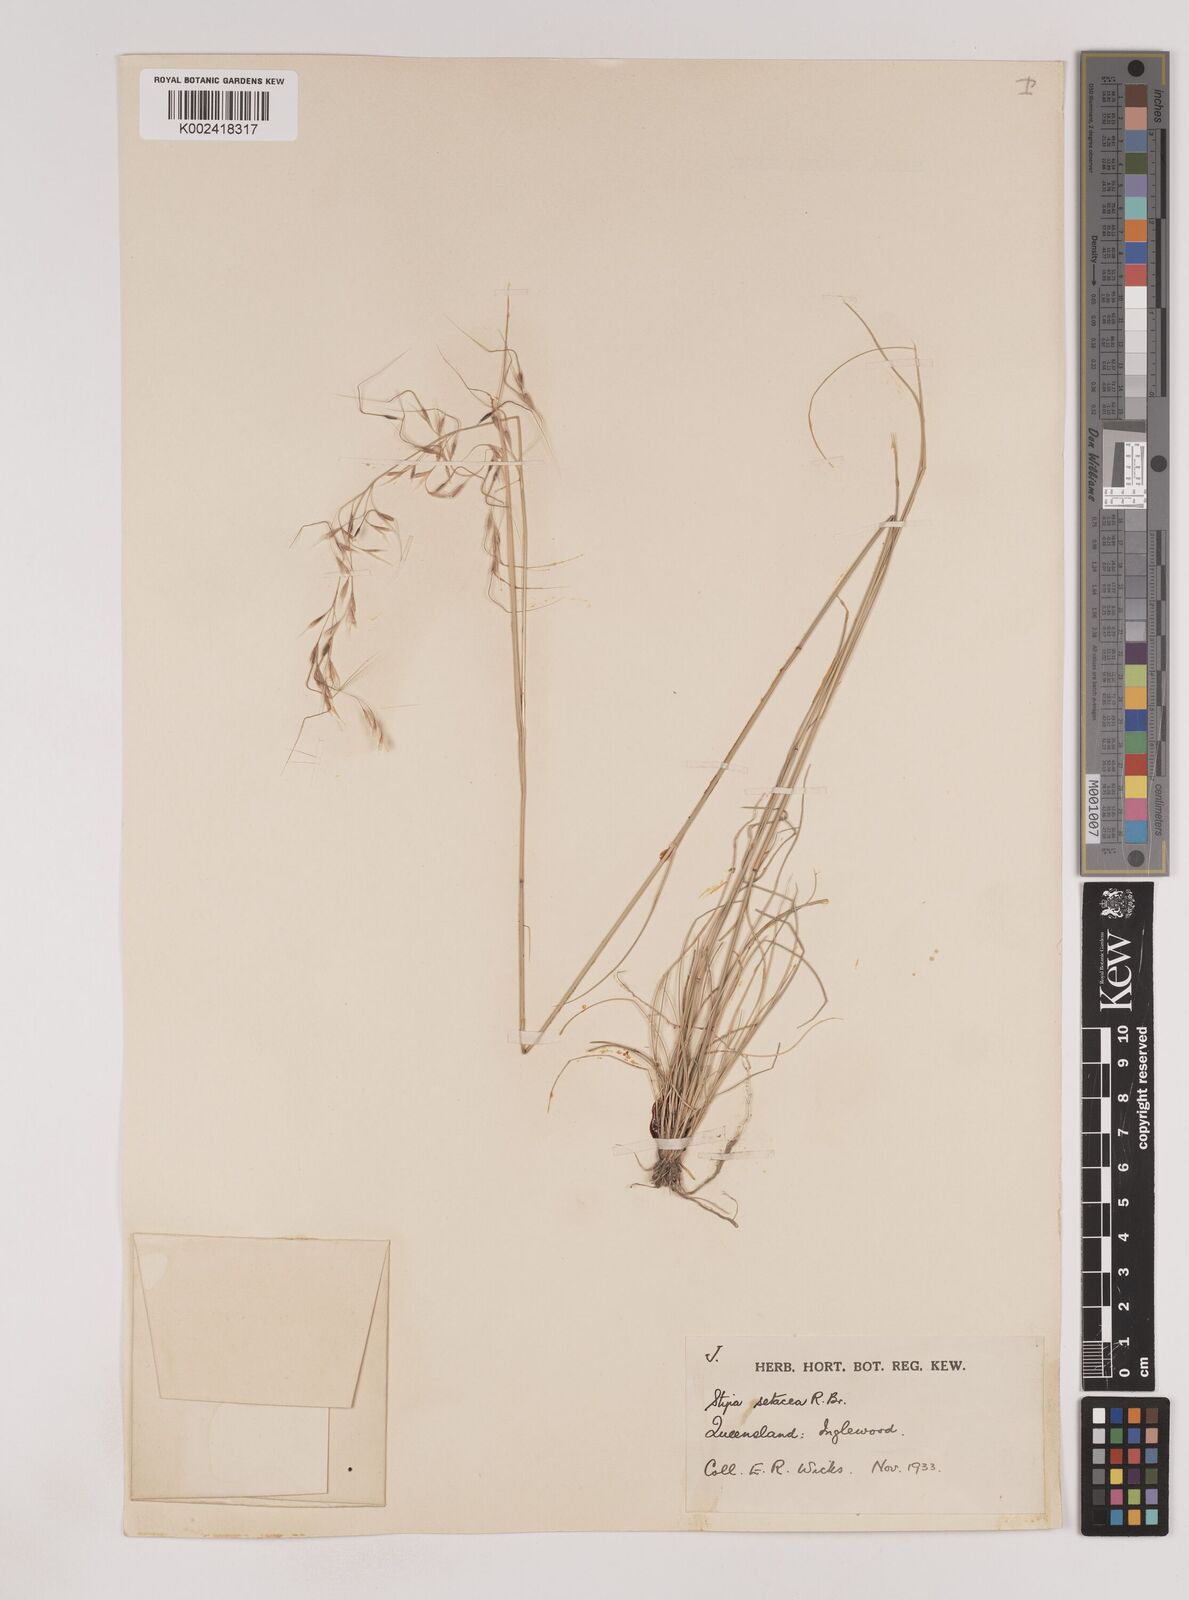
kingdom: Plantae
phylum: Tracheophyta
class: Liliopsida
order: Poales
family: Poaceae
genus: Piptochaetium
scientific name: Piptochaetium
